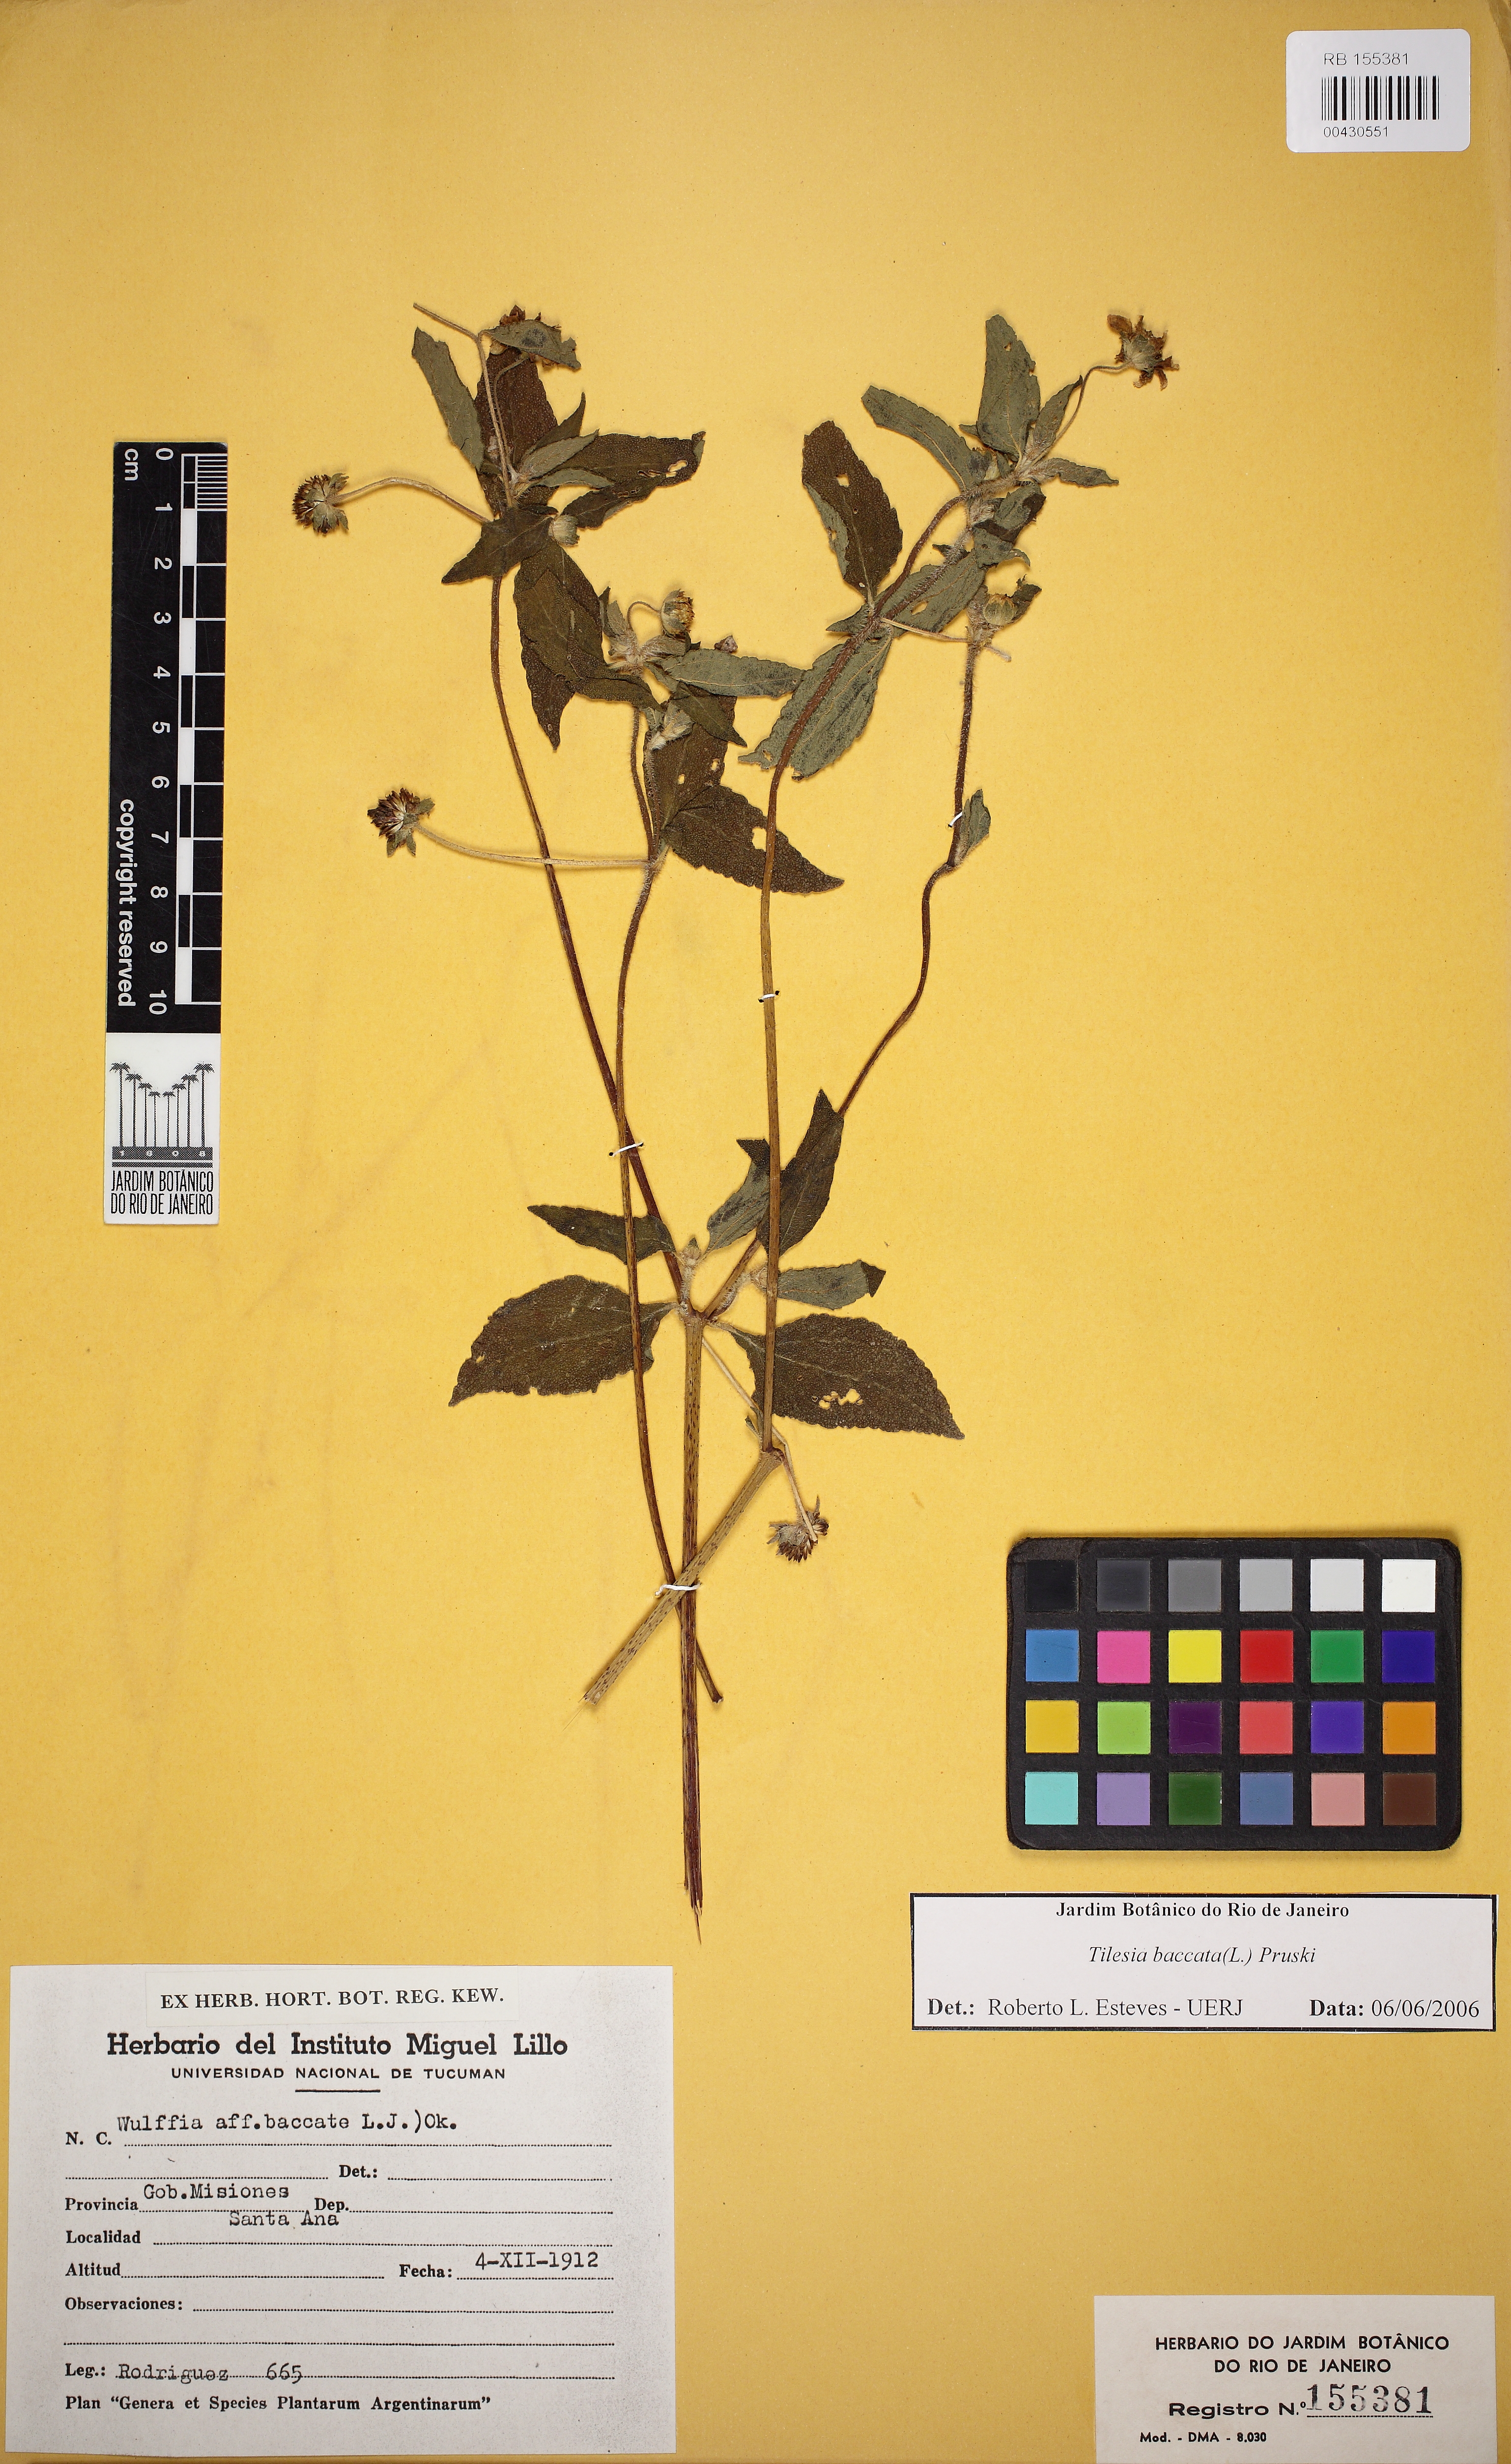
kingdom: Plantae
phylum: Tracheophyta
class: Magnoliopsida
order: Asterales
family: Asteraceae
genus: Tilesia
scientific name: Tilesia baccata
